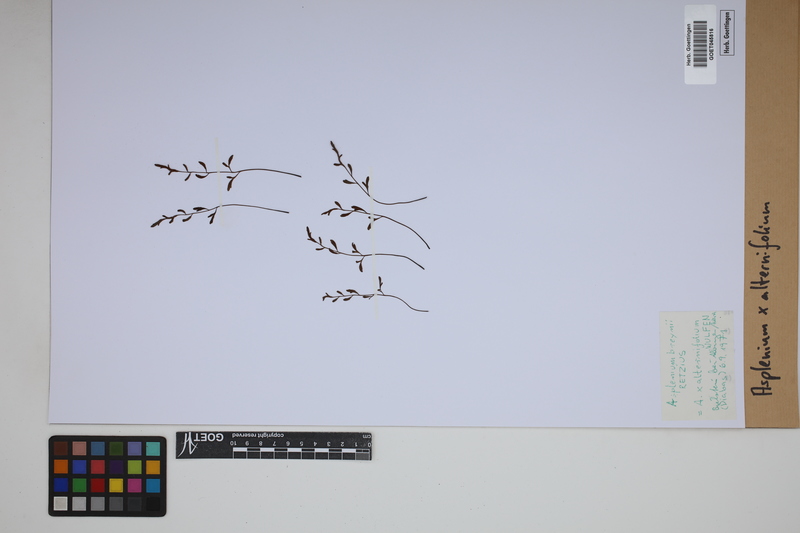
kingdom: Plantae
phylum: Tracheophyta
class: Polypodiopsida
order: Polypodiales
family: Aspleniaceae
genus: Asplenium
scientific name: Asplenium alternifolium
